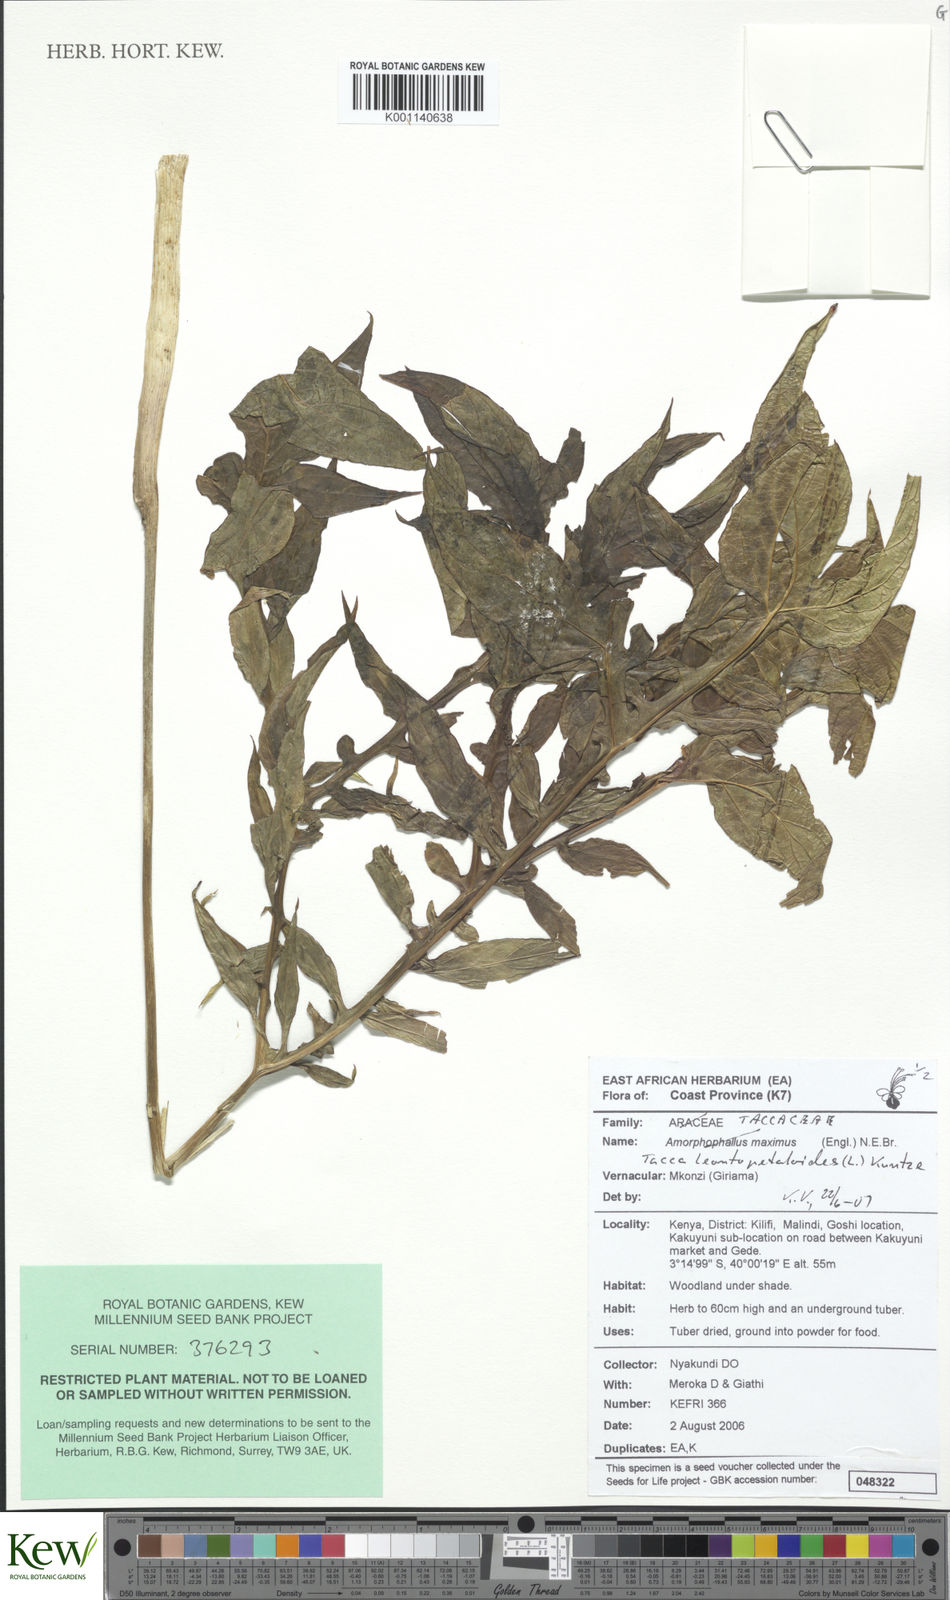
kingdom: Plantae
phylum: Tracheophyta
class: Liliopsida
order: Dioscoreales
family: Dioscoreaceae
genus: Tacca
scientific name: Tacca leontopetaloides
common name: Arrowroot
